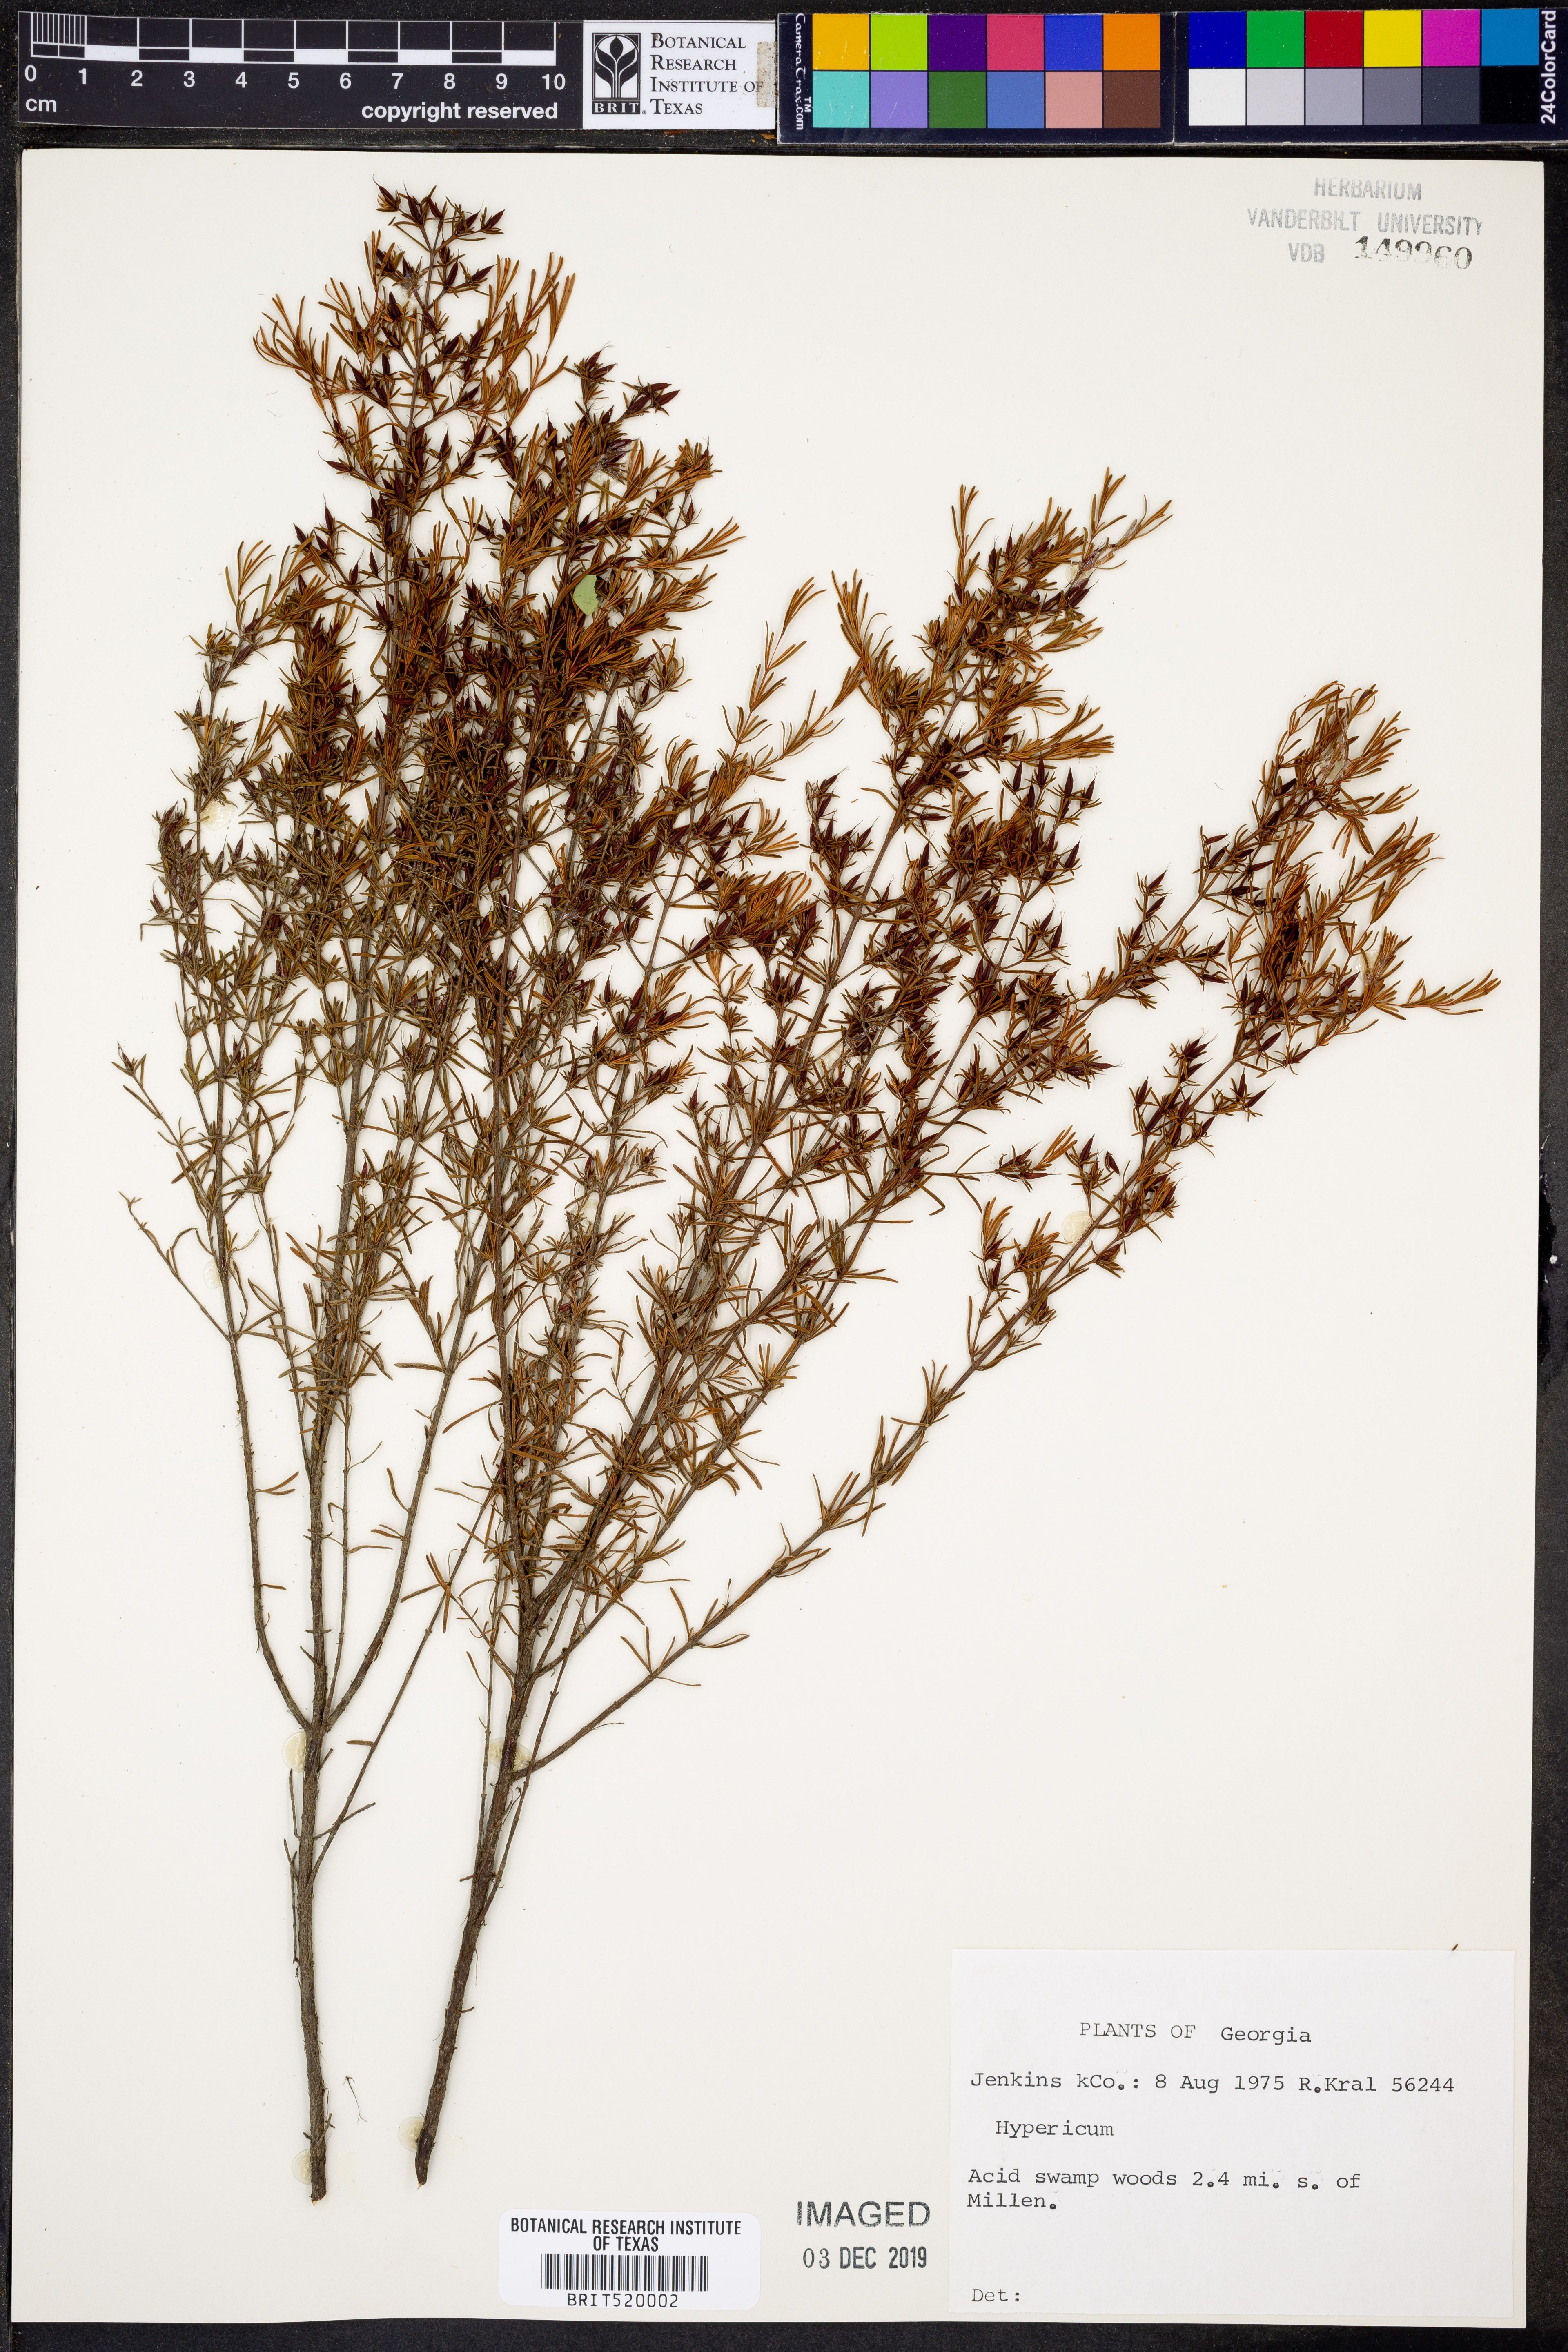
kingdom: Plantae
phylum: Tracheophyta
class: Magnoliopsida
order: Malpighiales
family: Hypericaceae
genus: Hypericum
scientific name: Hypericum
